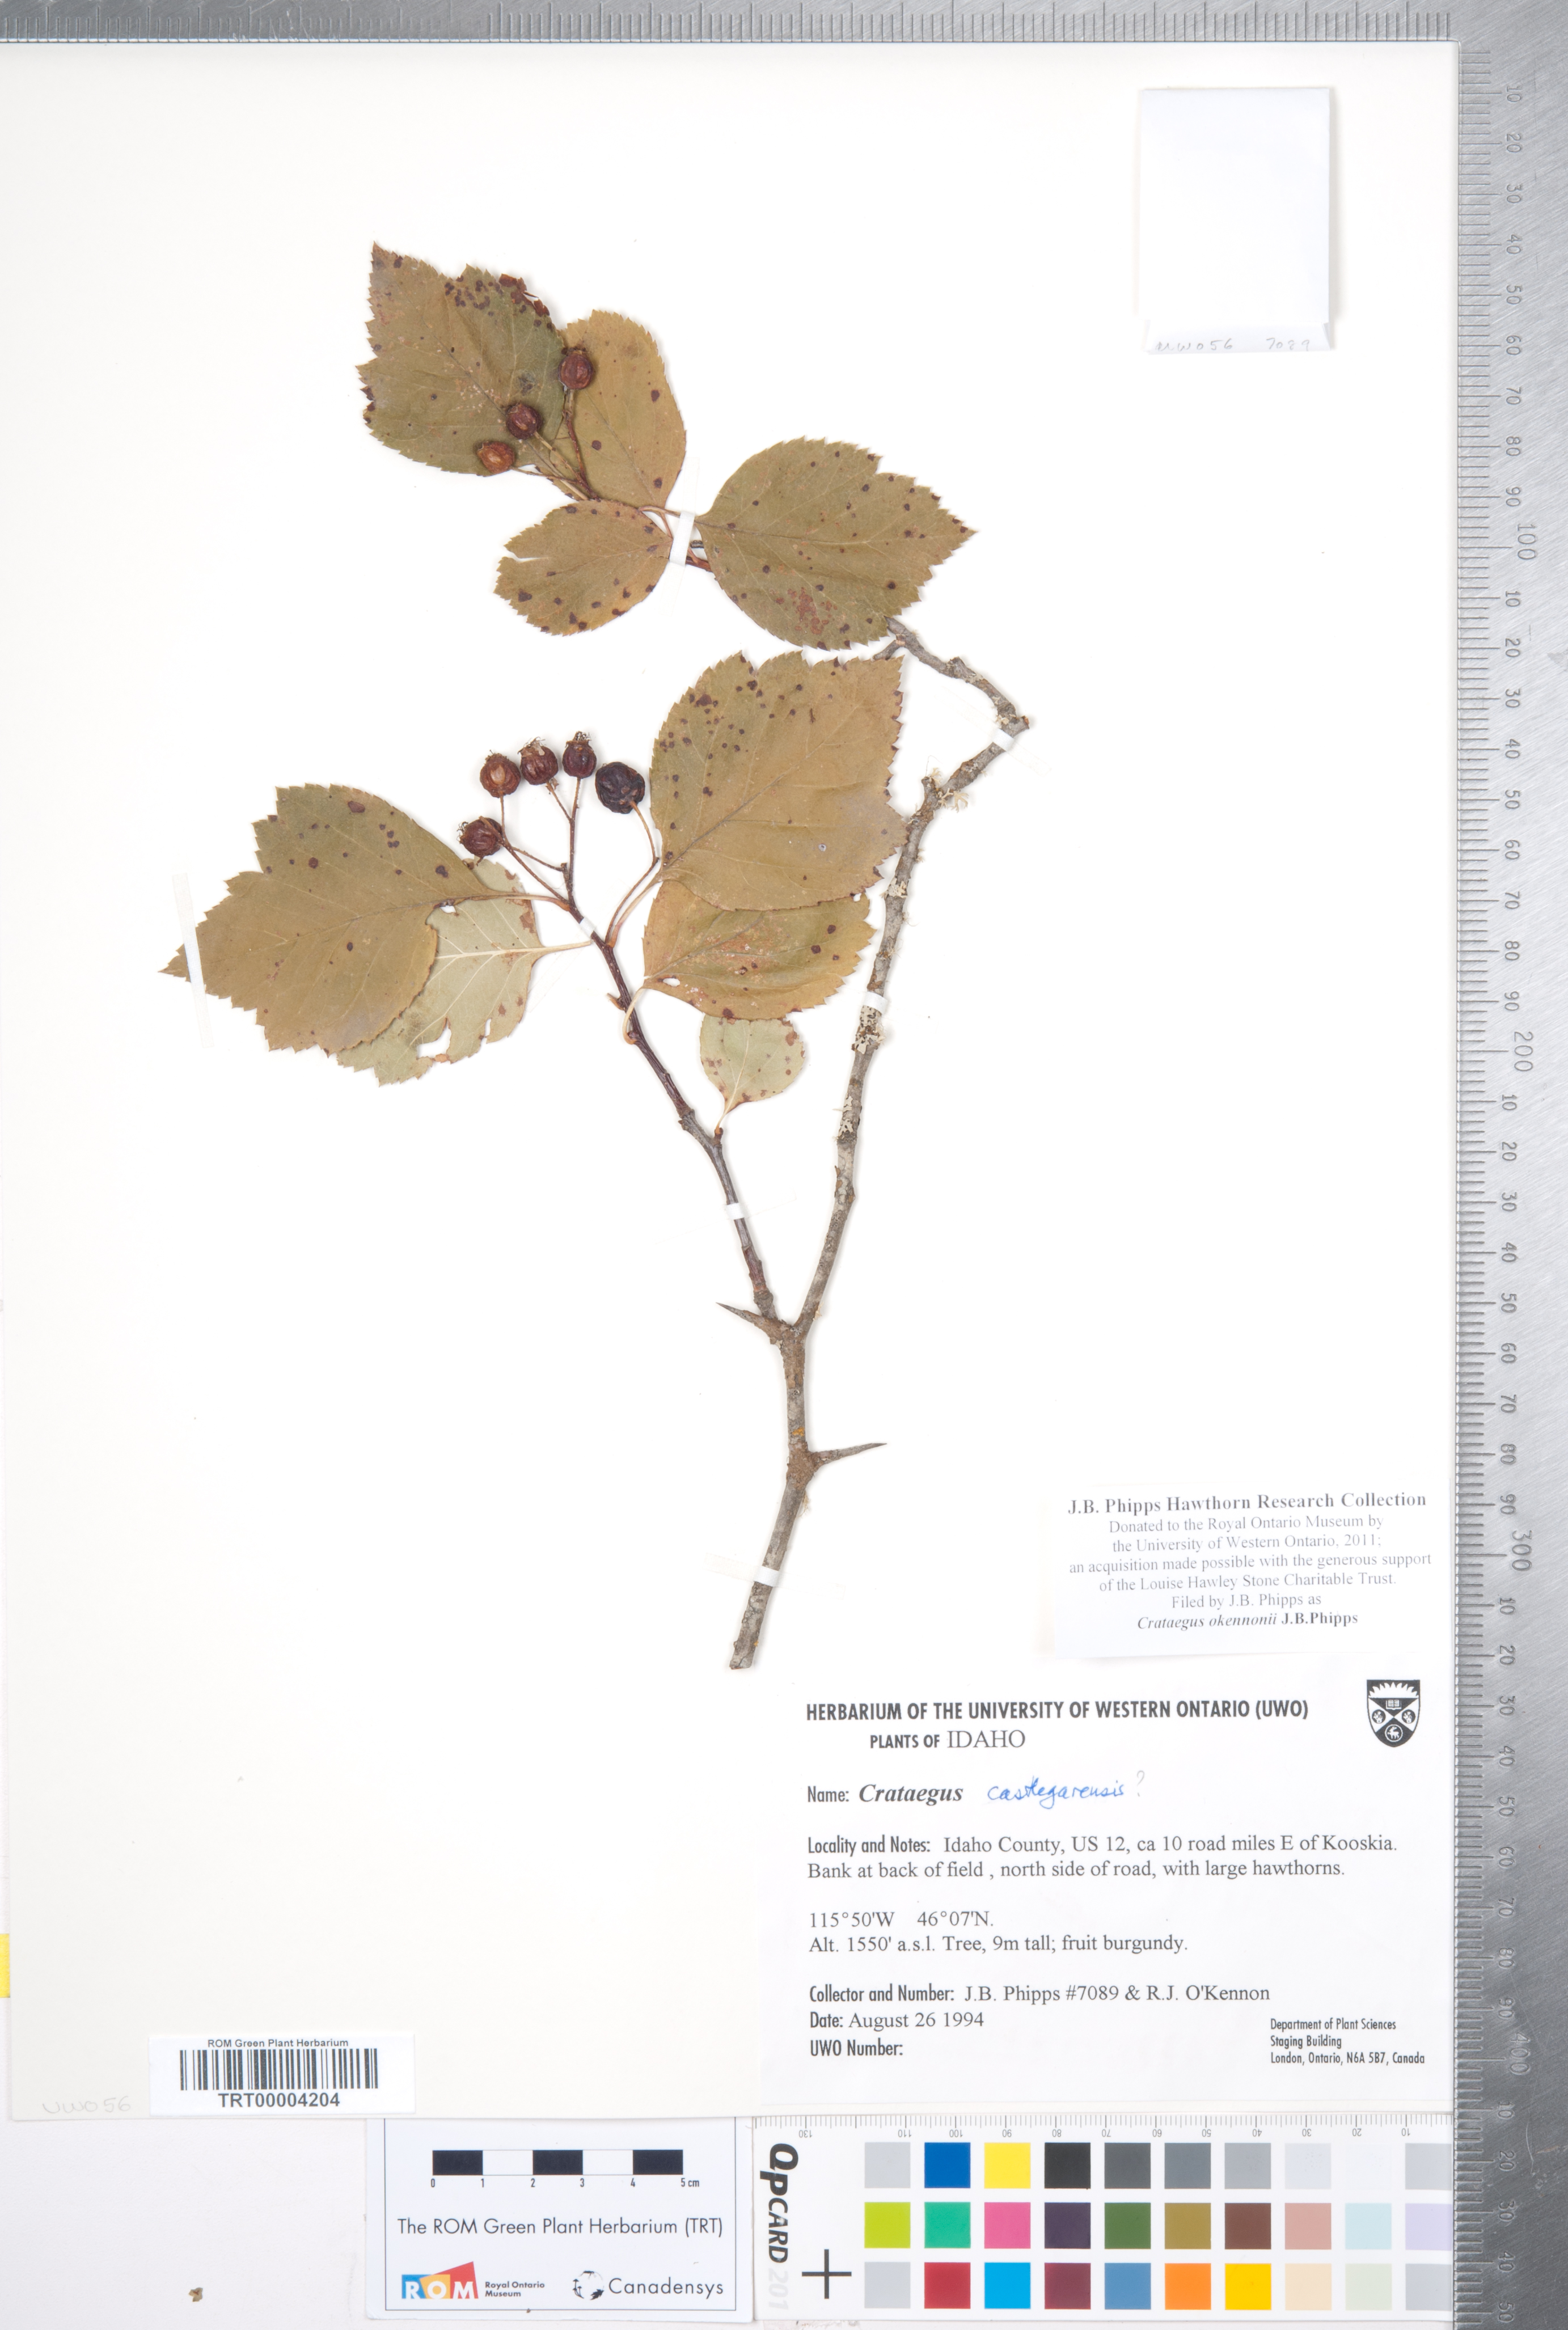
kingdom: Plantae
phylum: Tracheophyta
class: Magnoliopsida
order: Rosales
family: Rosaceae
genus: Crataegus
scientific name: Crataegus okennonii
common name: O'kennon's hawthorn
